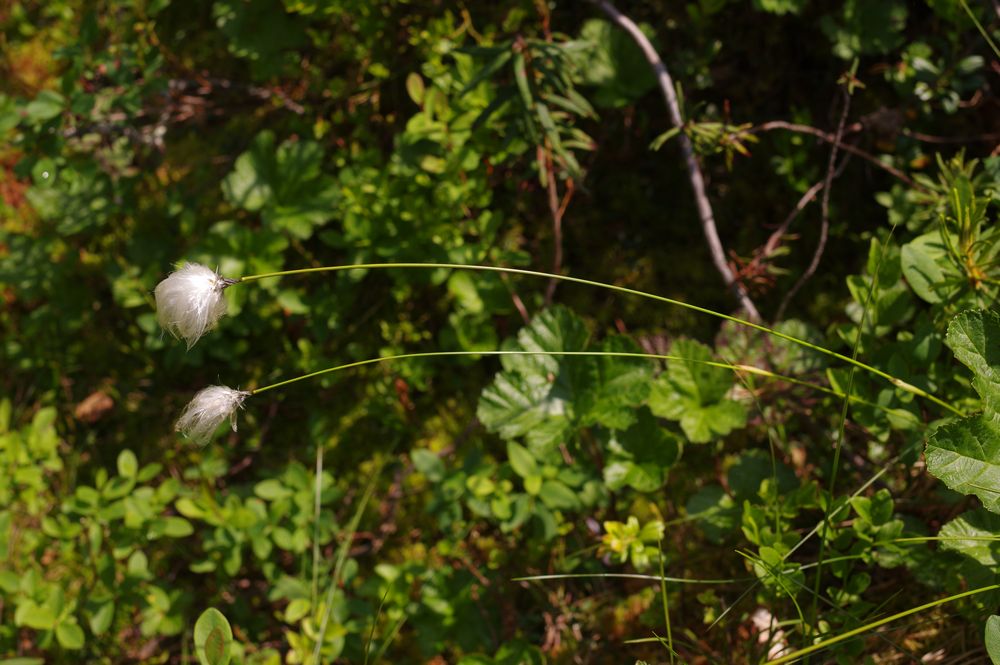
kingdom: Plantae
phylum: Tracheophyta
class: Liliopsida
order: Poales
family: Cyperaceae
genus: Eriophorum
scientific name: Eriophorum vaginatum
